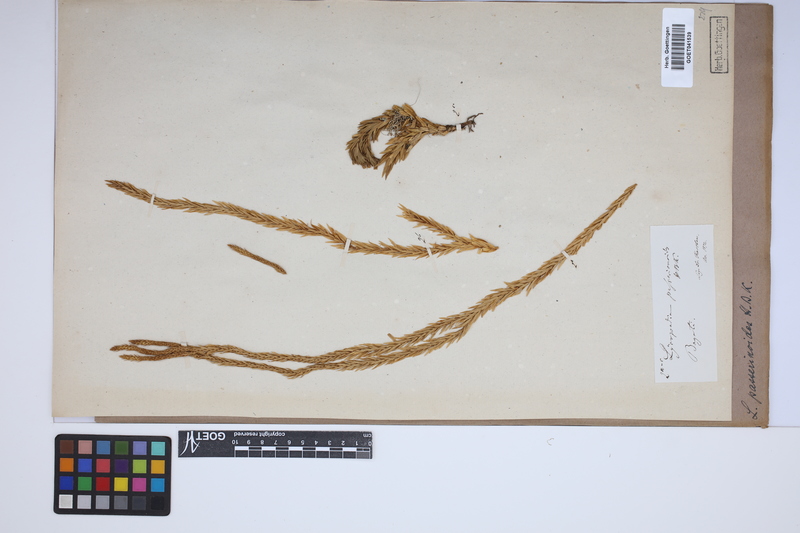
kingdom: Plantae
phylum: Tracheophyta
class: Lycopodiopsida
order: Lycopodiales
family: Lycopodiaceae
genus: Phlegmariurus
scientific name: Phlegmariurus taxifolius
